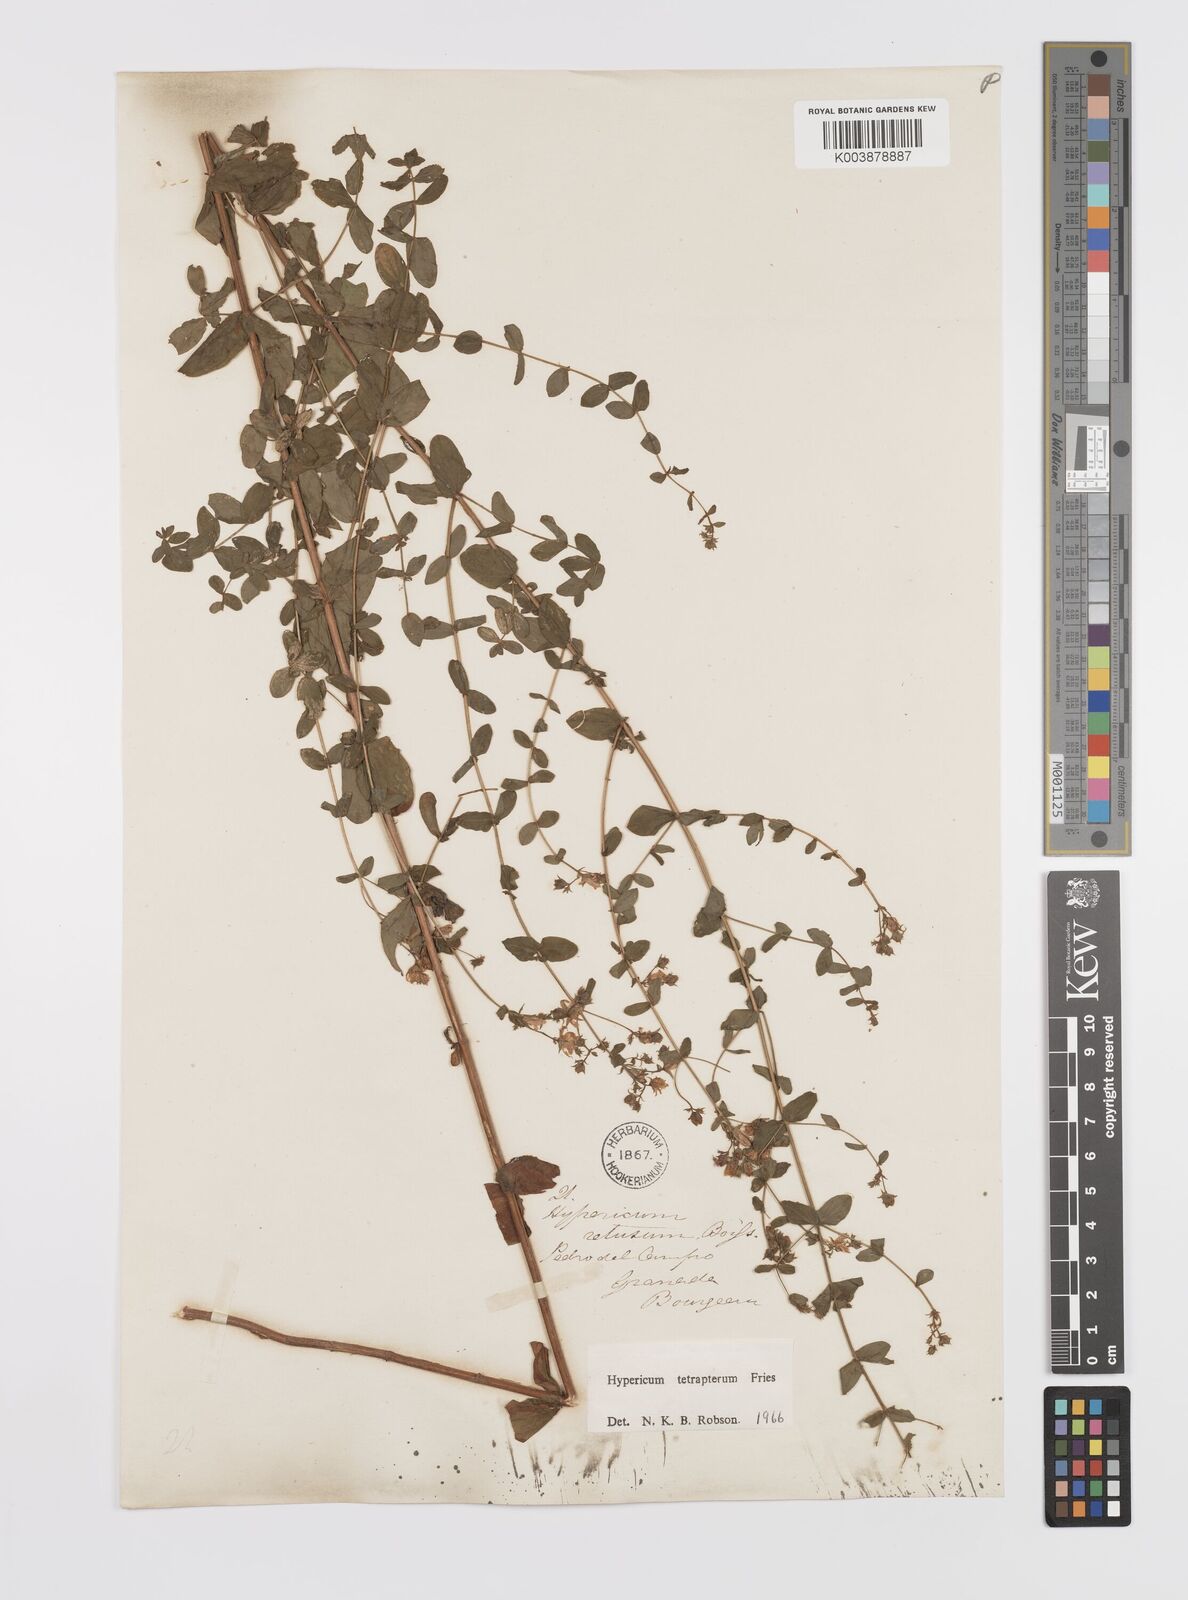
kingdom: Plantae
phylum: Tracheophyta
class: Magnoliopsida
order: Malpighiales
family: Hypericaceae
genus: Hypericum
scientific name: Hypericum tetrapterum
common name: Square-stalked st. john's-wort
